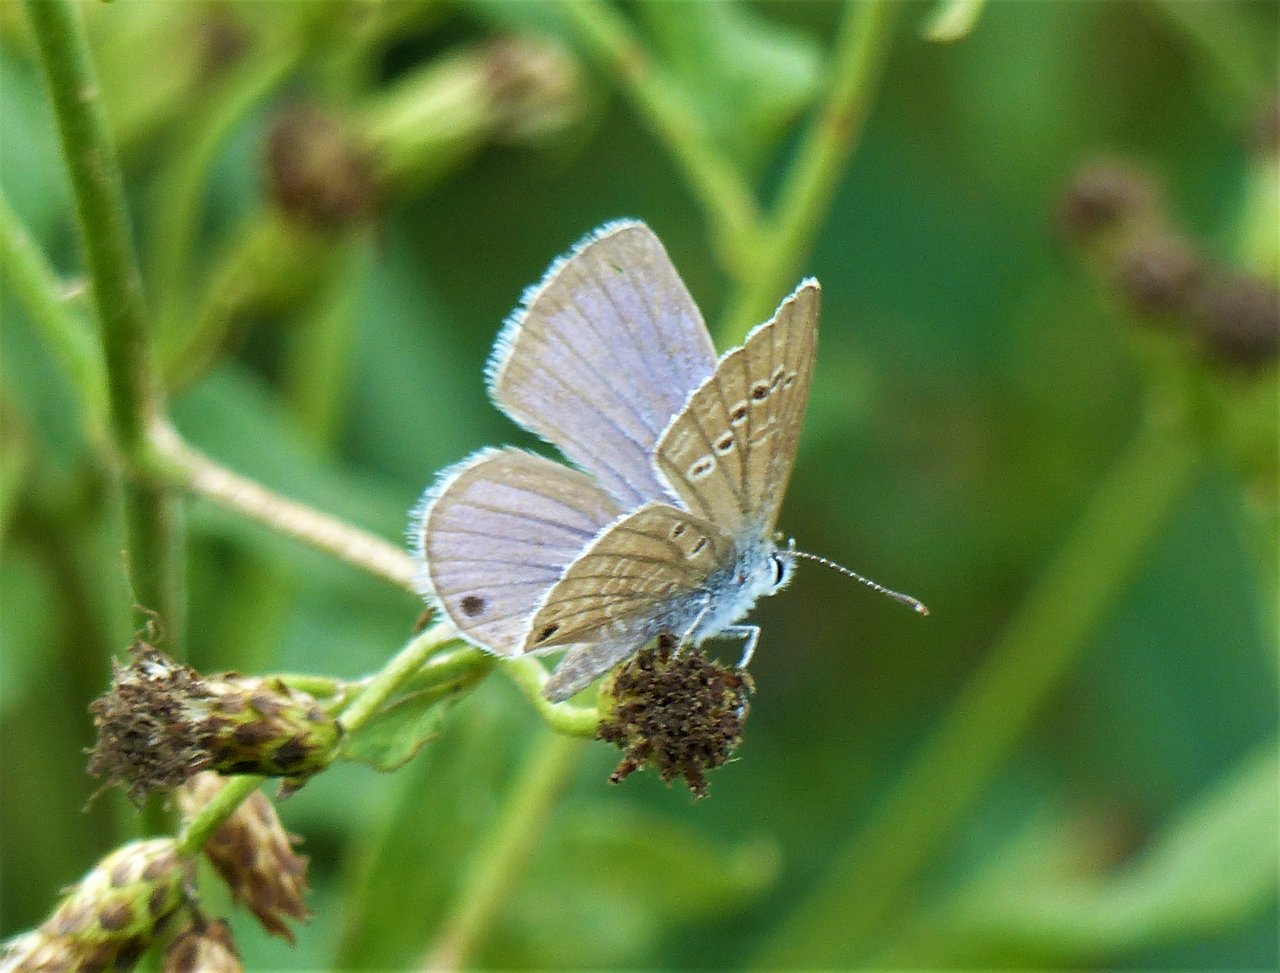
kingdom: Animalia
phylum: Arthropoda
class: Insecta
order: Lepidoptera
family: Lycaenidae
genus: Echinargus
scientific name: Echinargus isola
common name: Reakirt's Blue
